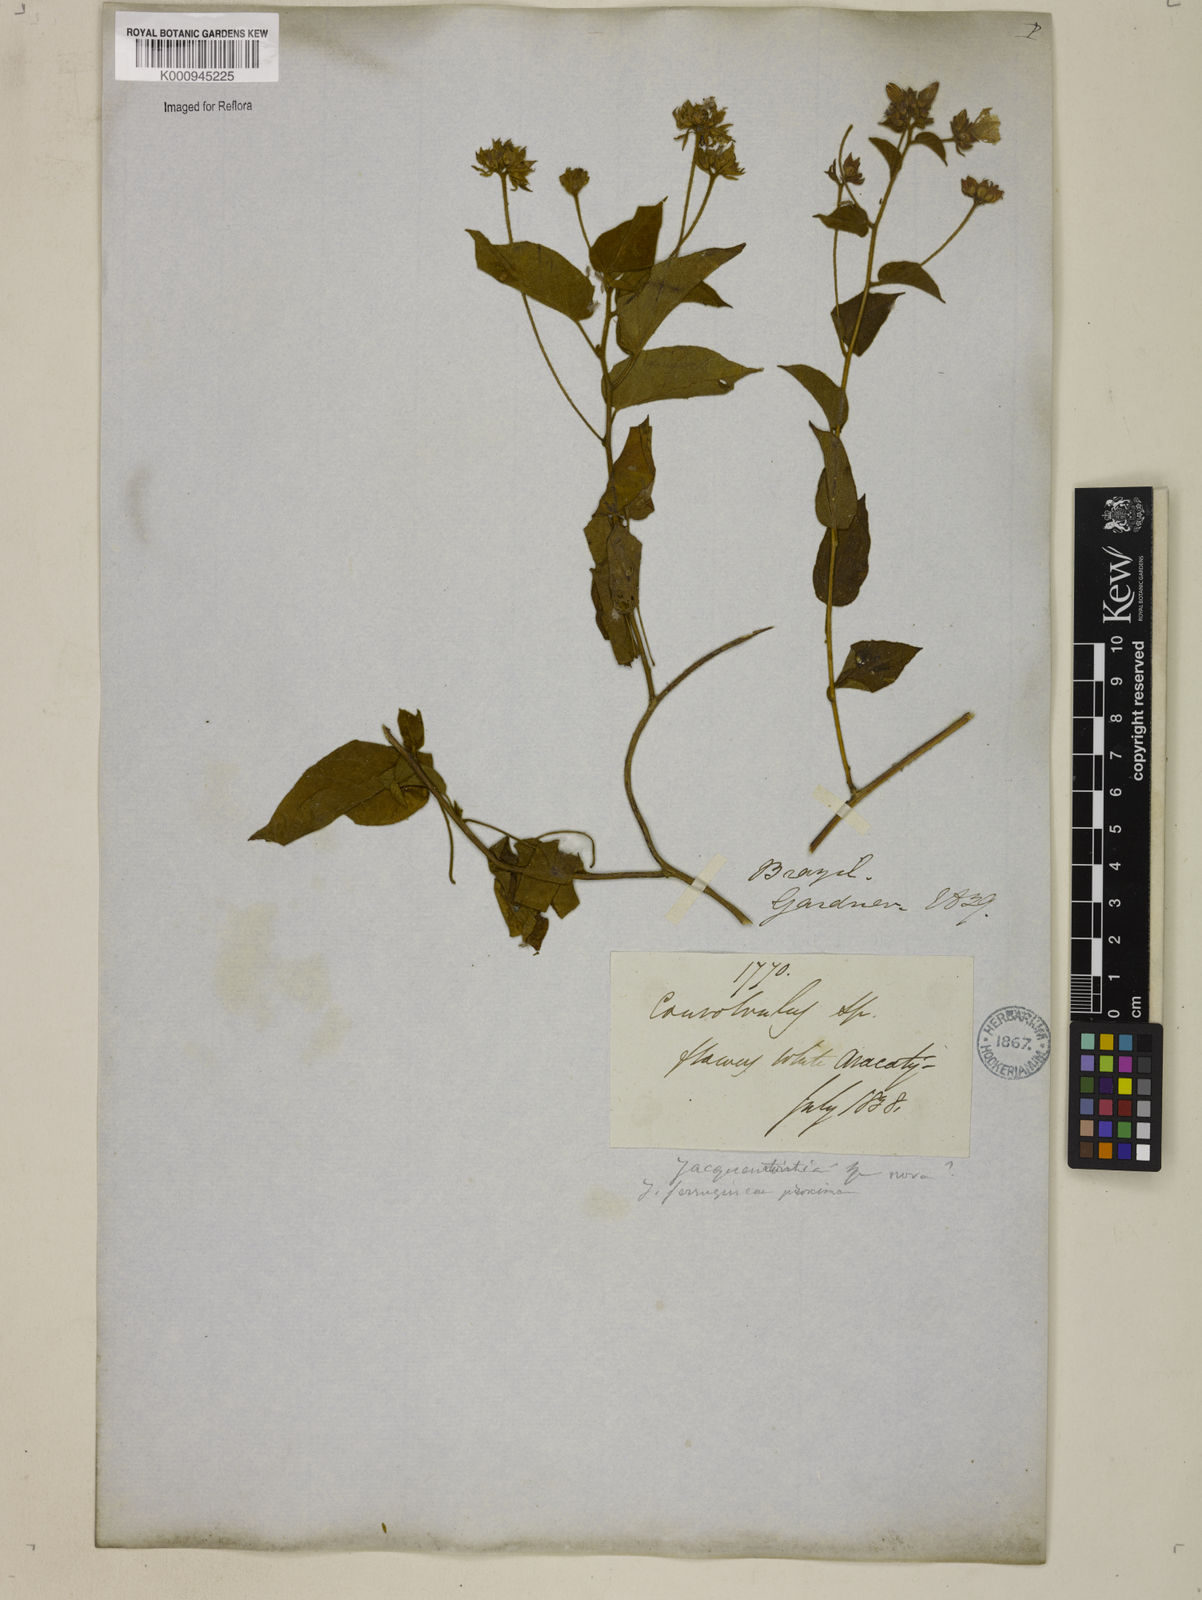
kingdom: Plantae
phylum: Tracheophyta
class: Magnoliopsida
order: Solanales
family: Convolvulaceae
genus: Jacquemontia
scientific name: Jacquemontia cumanensis
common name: Thicket clustervine
